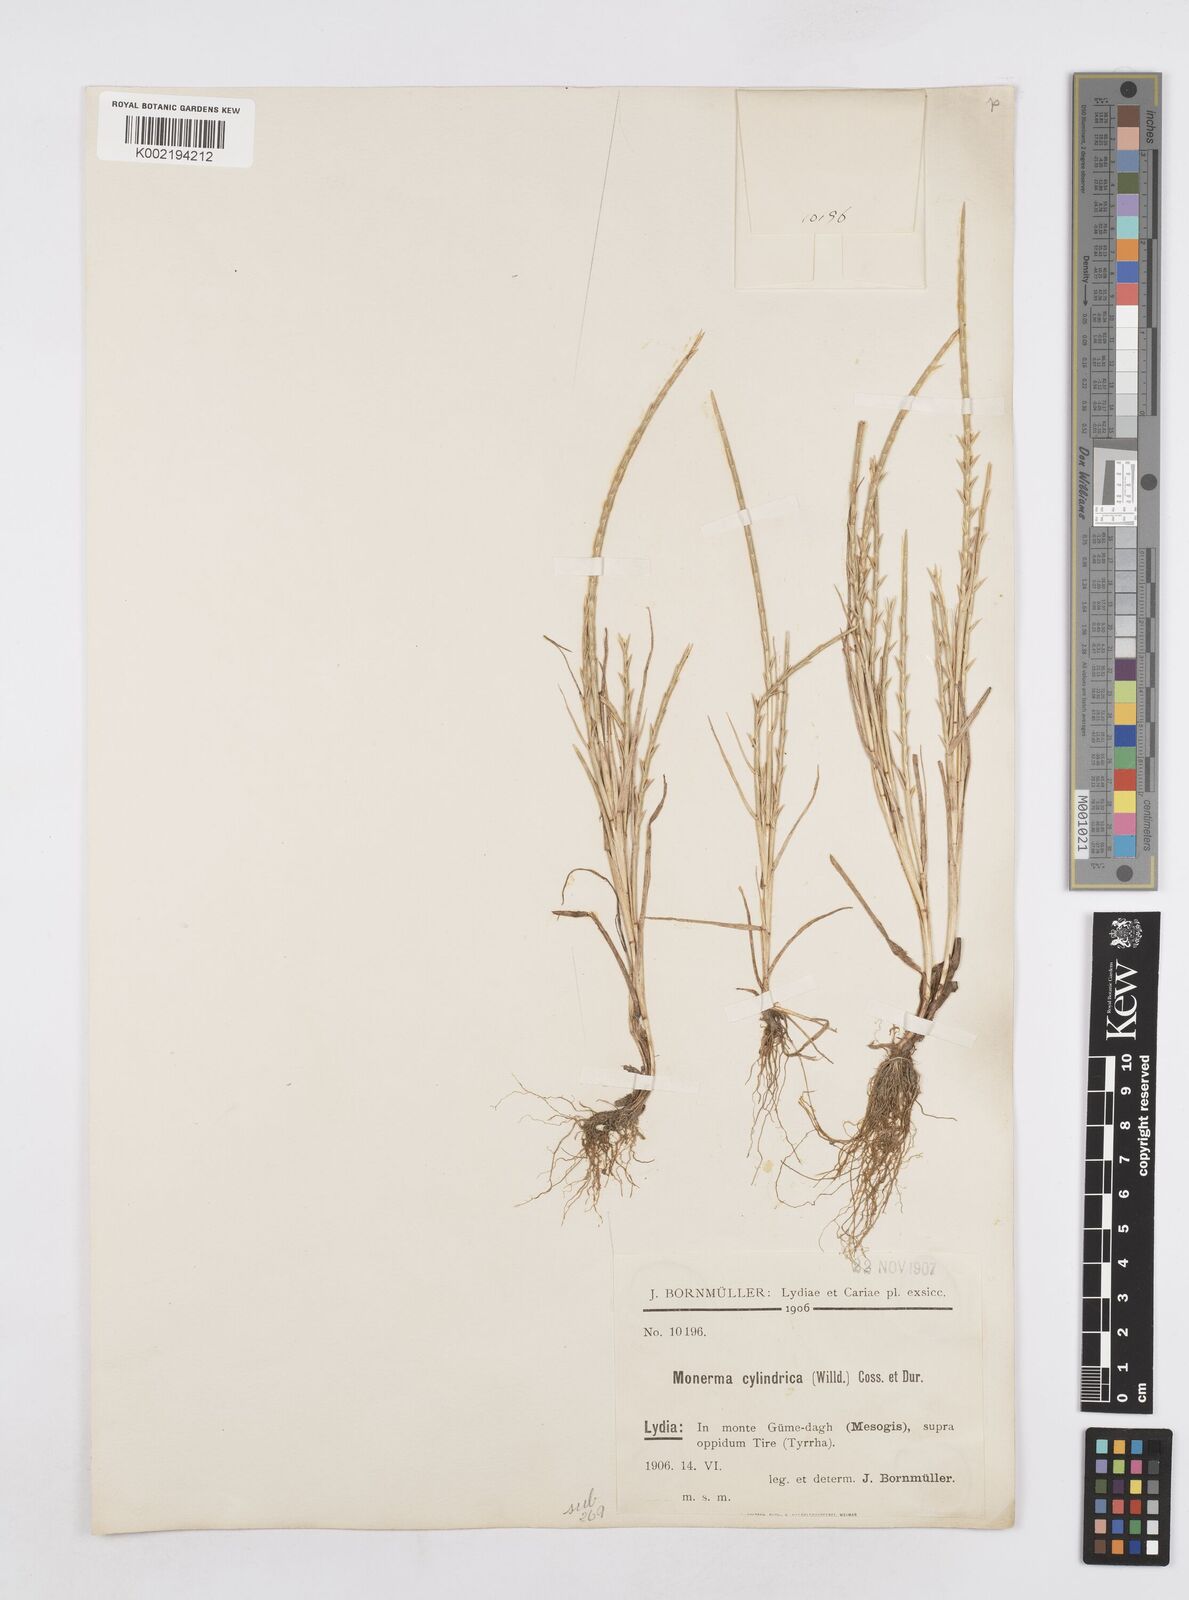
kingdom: Plantae
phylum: Tracheophyta
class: Liliopsida
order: Poales
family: Poaceae
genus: Parapholis
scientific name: Parapholis cylindrica
